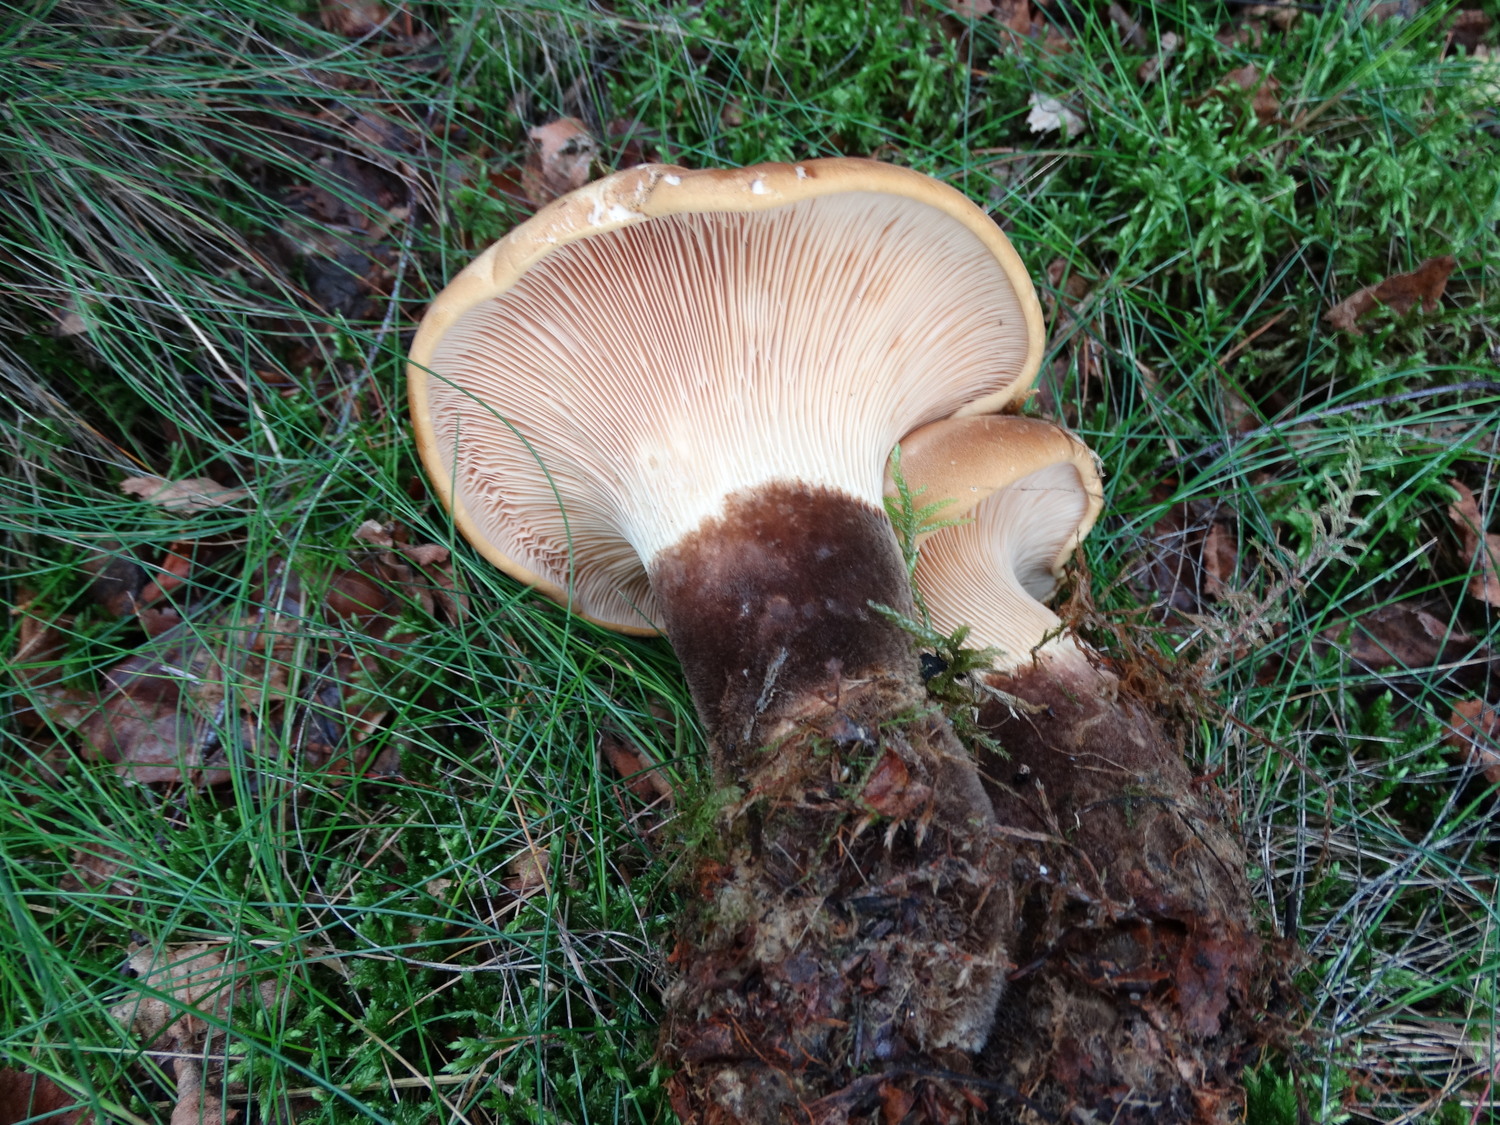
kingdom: Fungi
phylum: Basidiomycota
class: Agaricomycetes
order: Boletales
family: Tapinellaceae
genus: Tapinella
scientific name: Tapinella atrotomentosa
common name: sortfiltet viftesvamp
